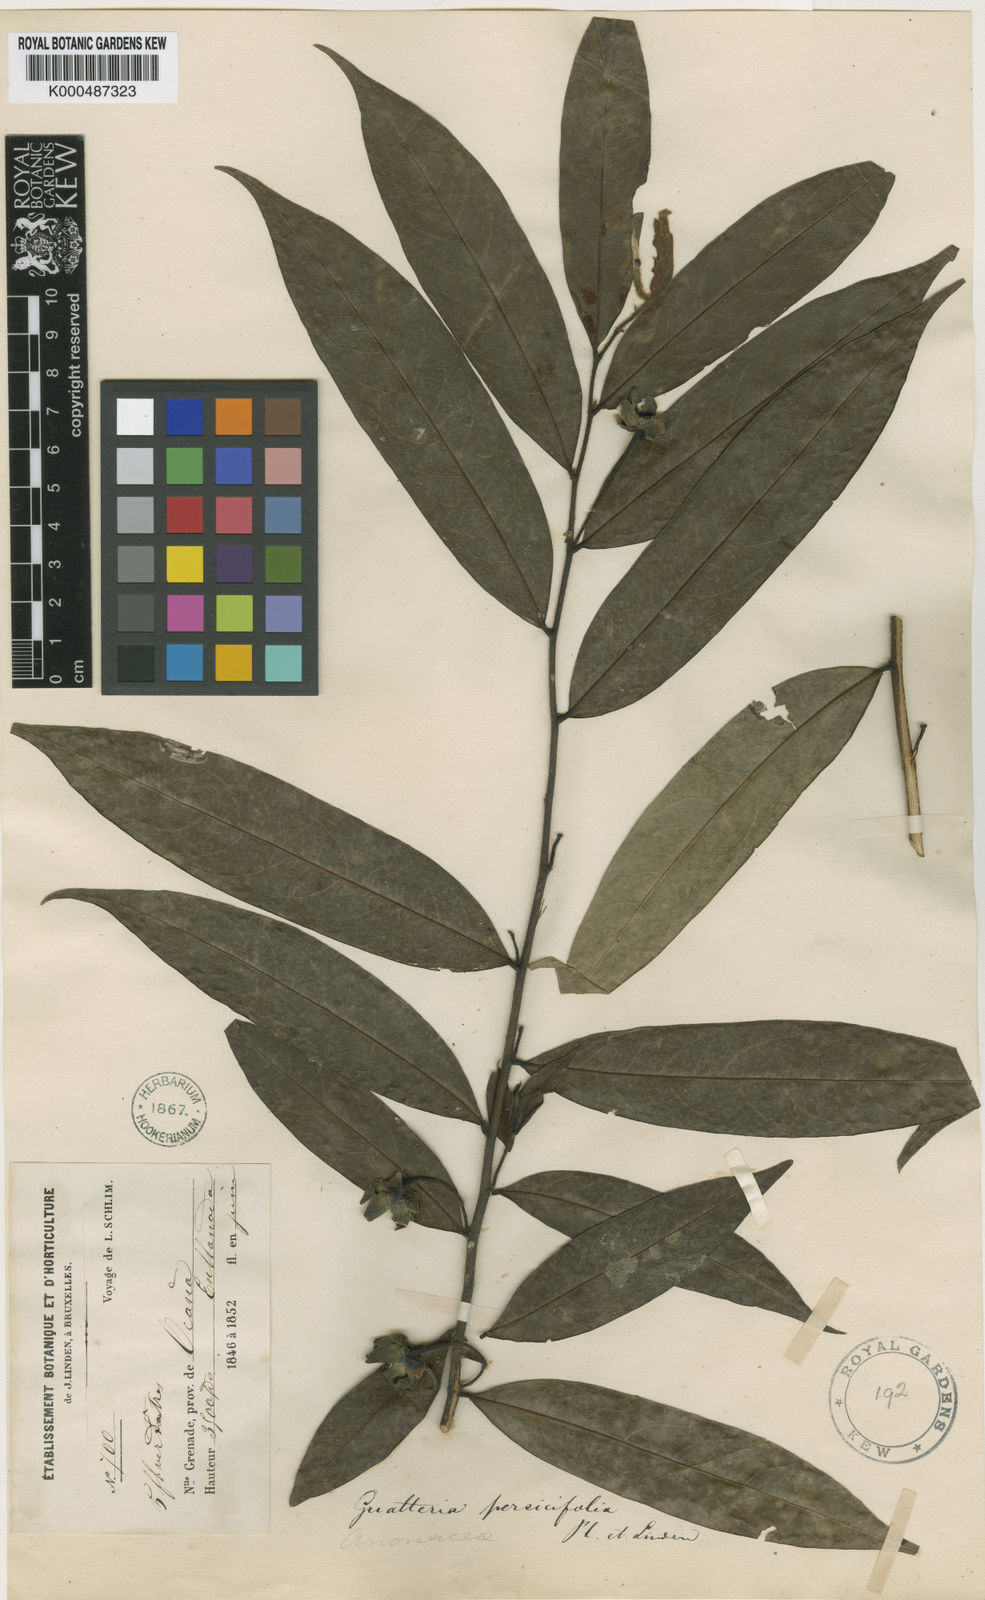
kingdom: Plantae
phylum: Tracheophyta
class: Magnoliopsida
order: Magnoliales
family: Annonaceae
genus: Guatteria
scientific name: Guatteria
